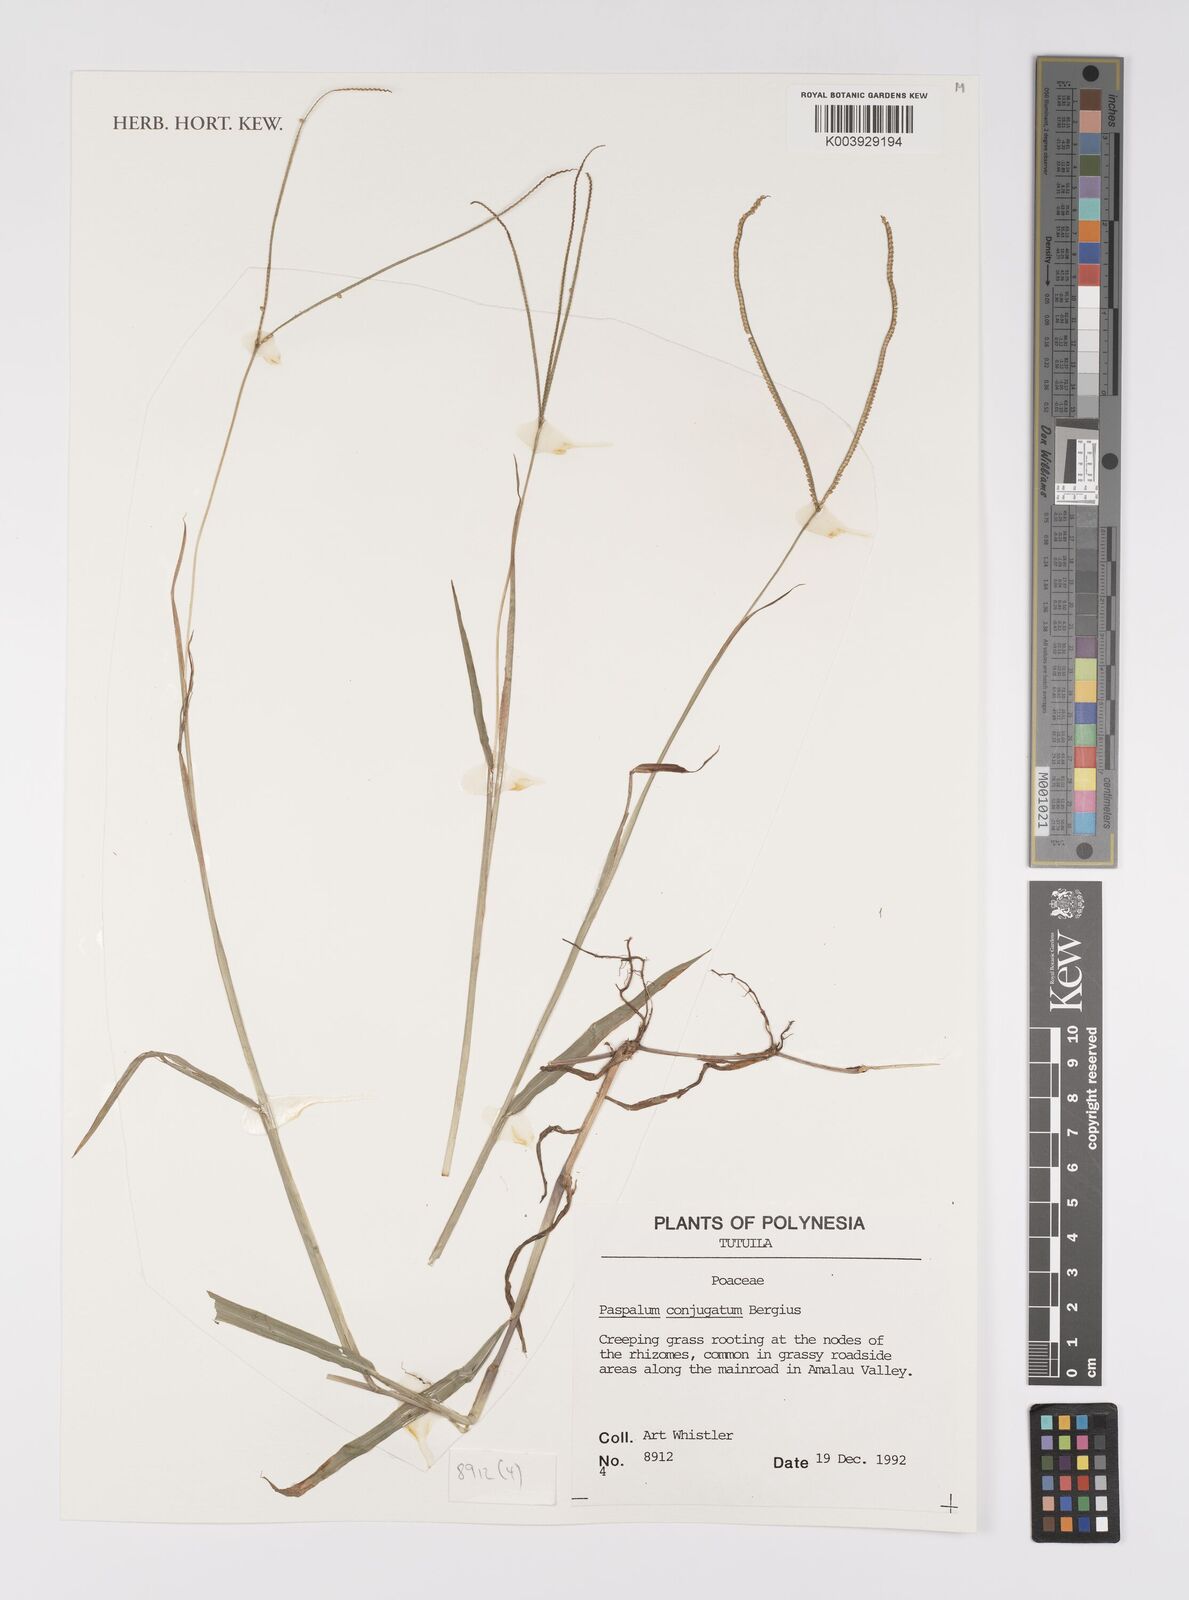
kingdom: Plantae
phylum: Tracheophyta
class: Liliopsida
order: Poales
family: Poaceae
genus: Paspalum
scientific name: Paspalum conjugatum
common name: Hilograss
